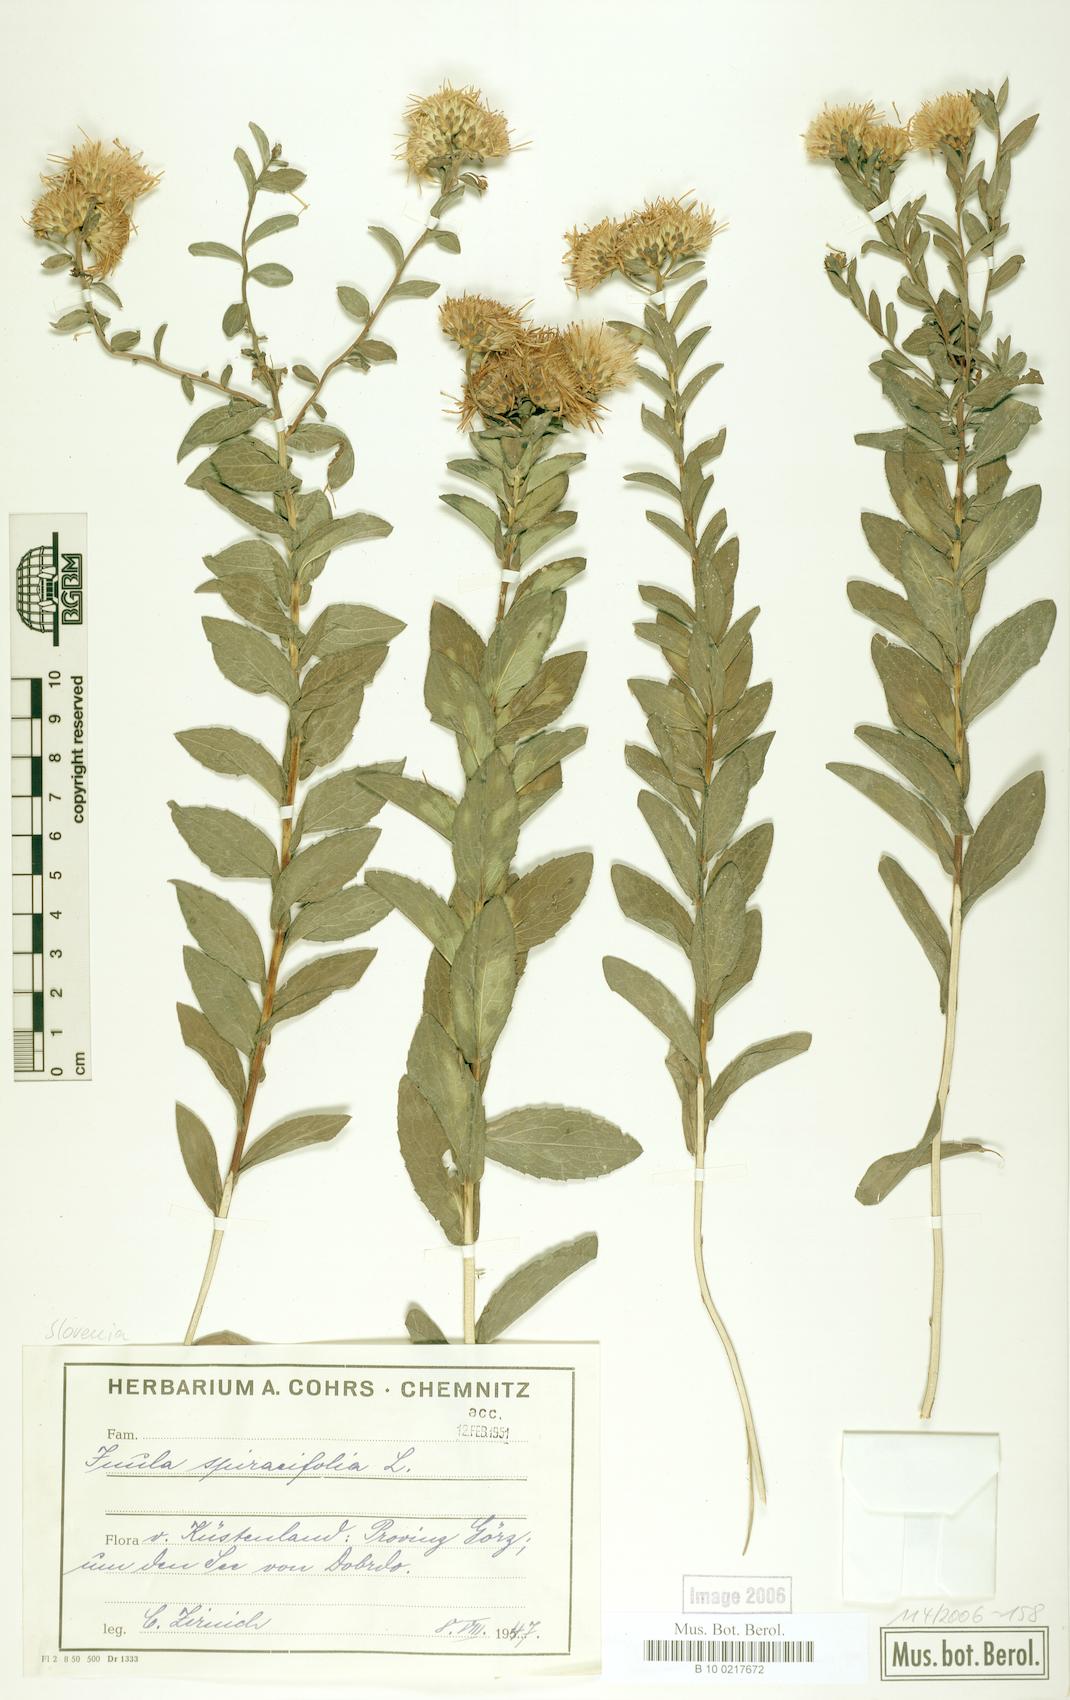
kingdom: Plantae
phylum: Tracheophyta
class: Magnoliopsida
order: Asterales
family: Asteraceae
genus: Pentanema
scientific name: Pentanema spiraeifolium
